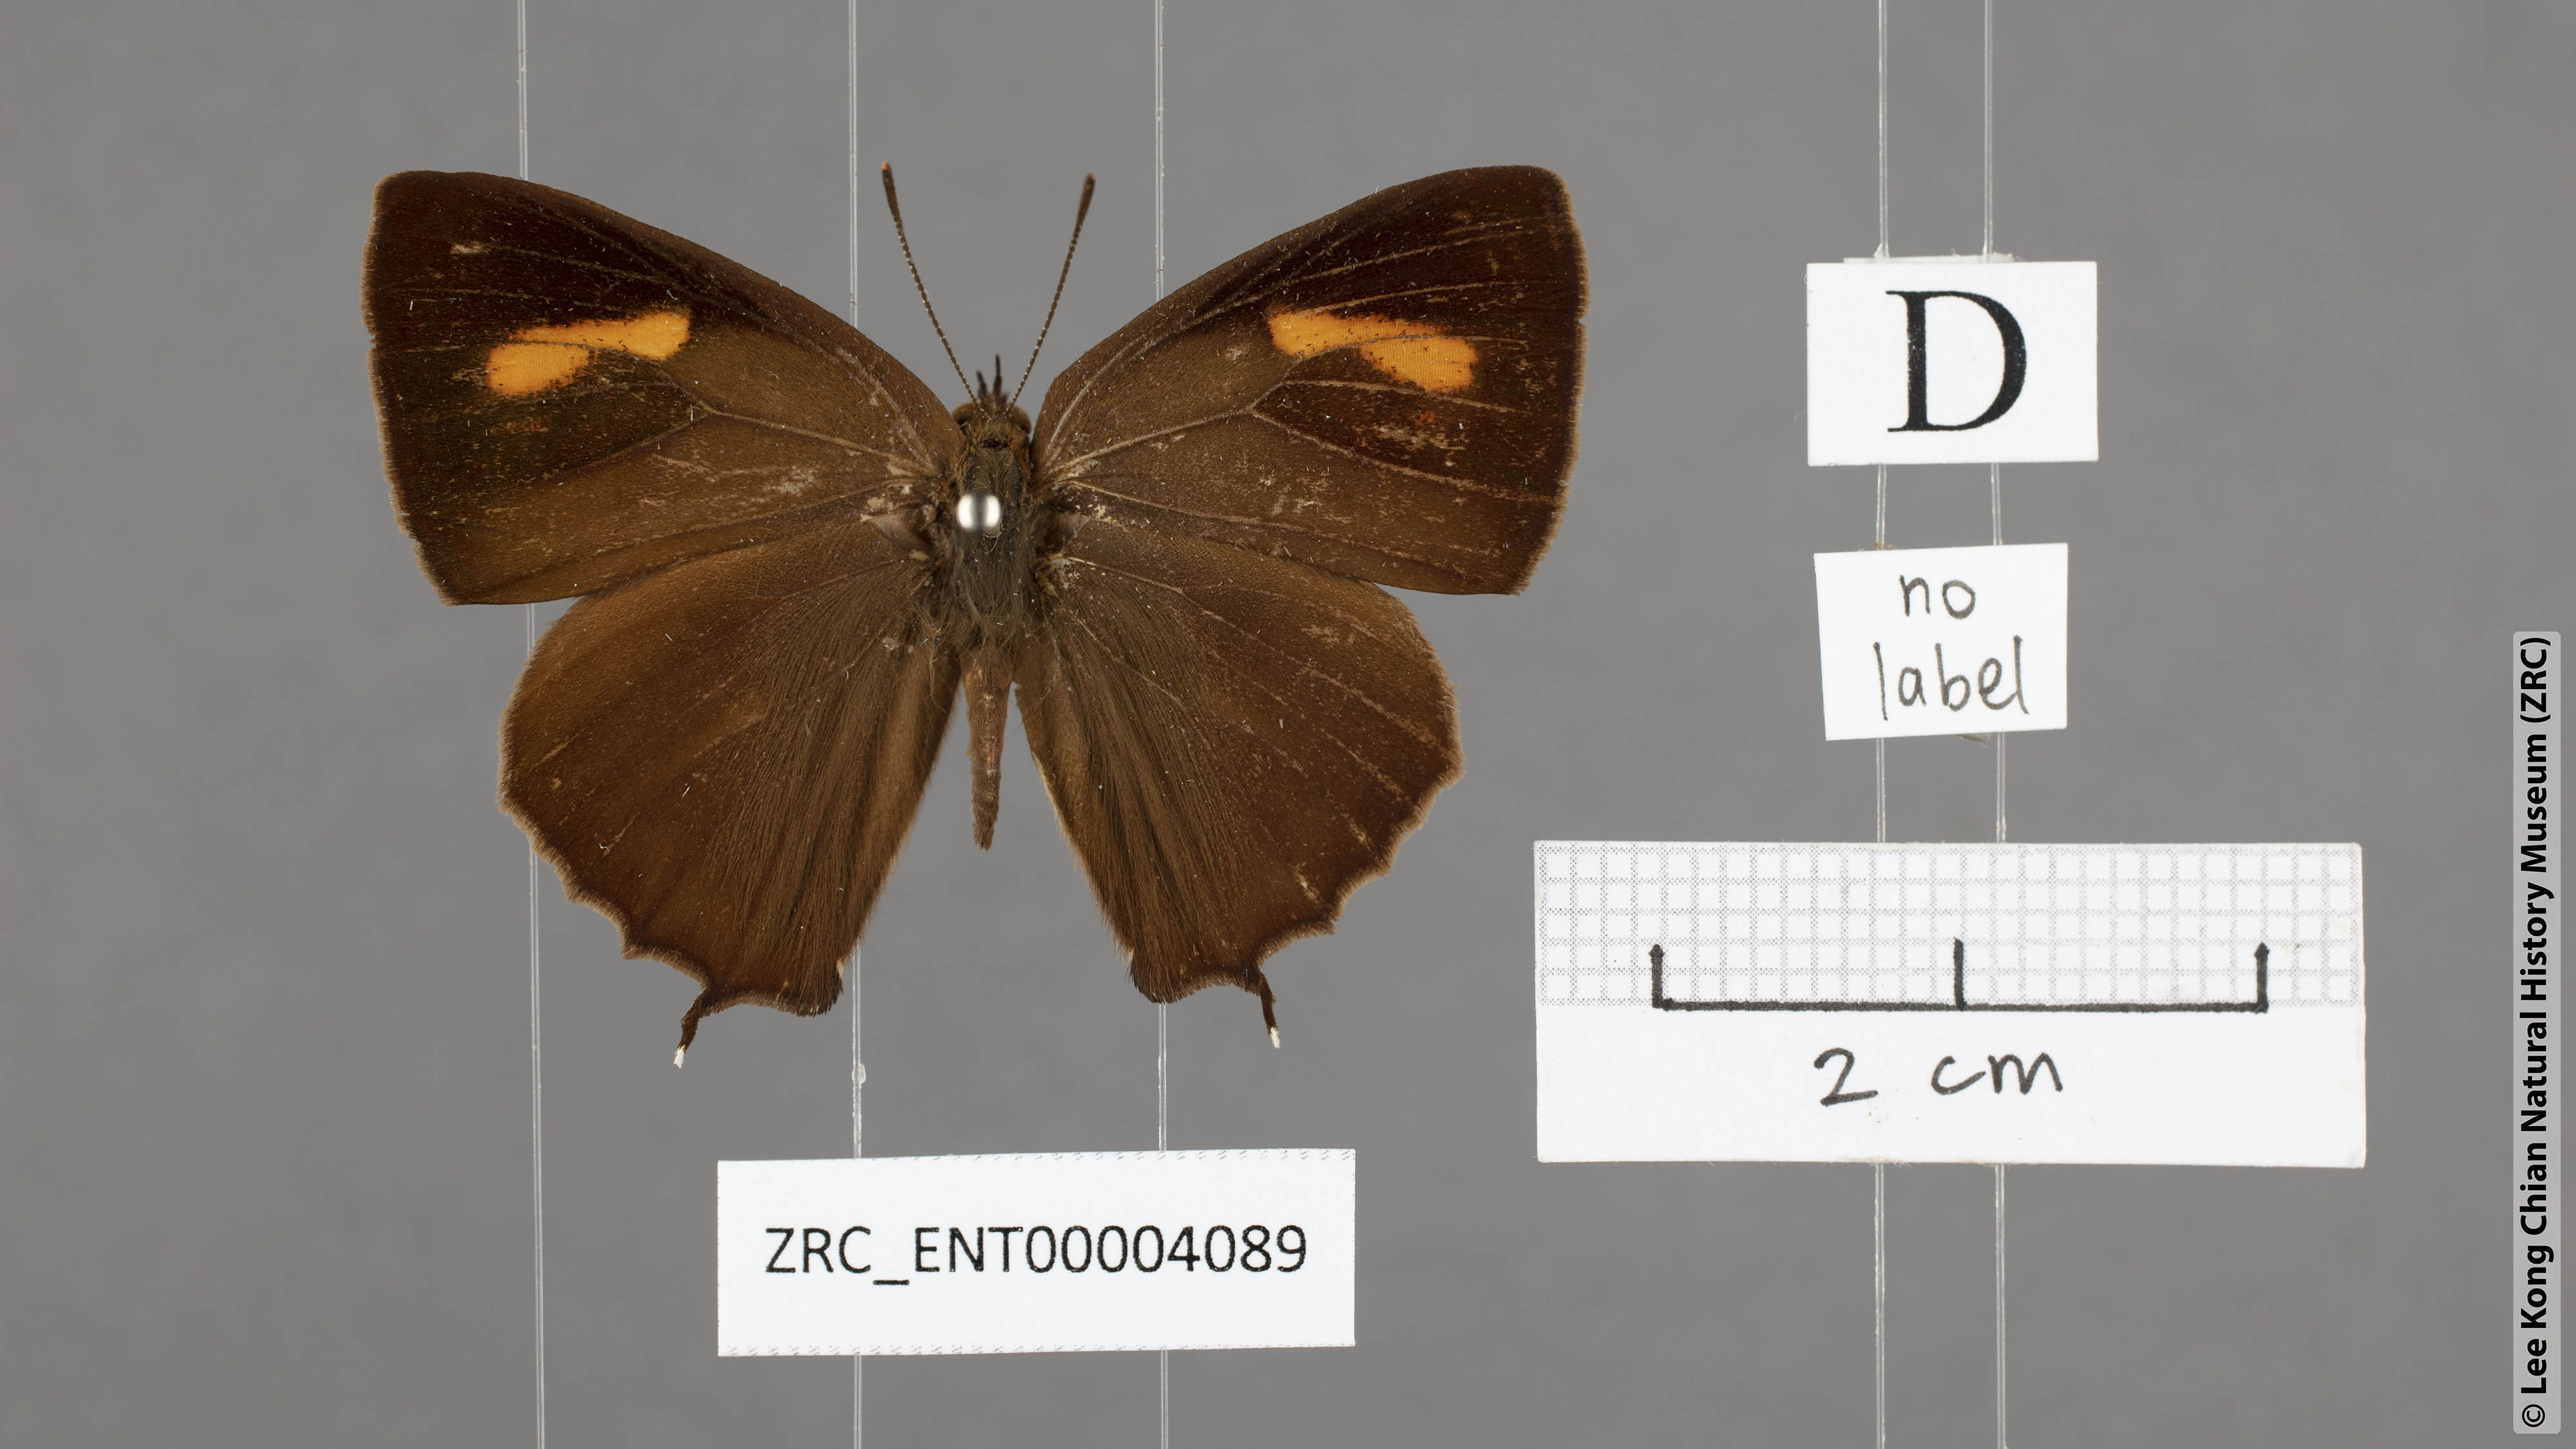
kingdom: Animalia
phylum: Arthropoda
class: Insecta
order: Lepidoptera
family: Lycaenidae
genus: Austrozephyrus
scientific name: Austrozephyrus absolon
